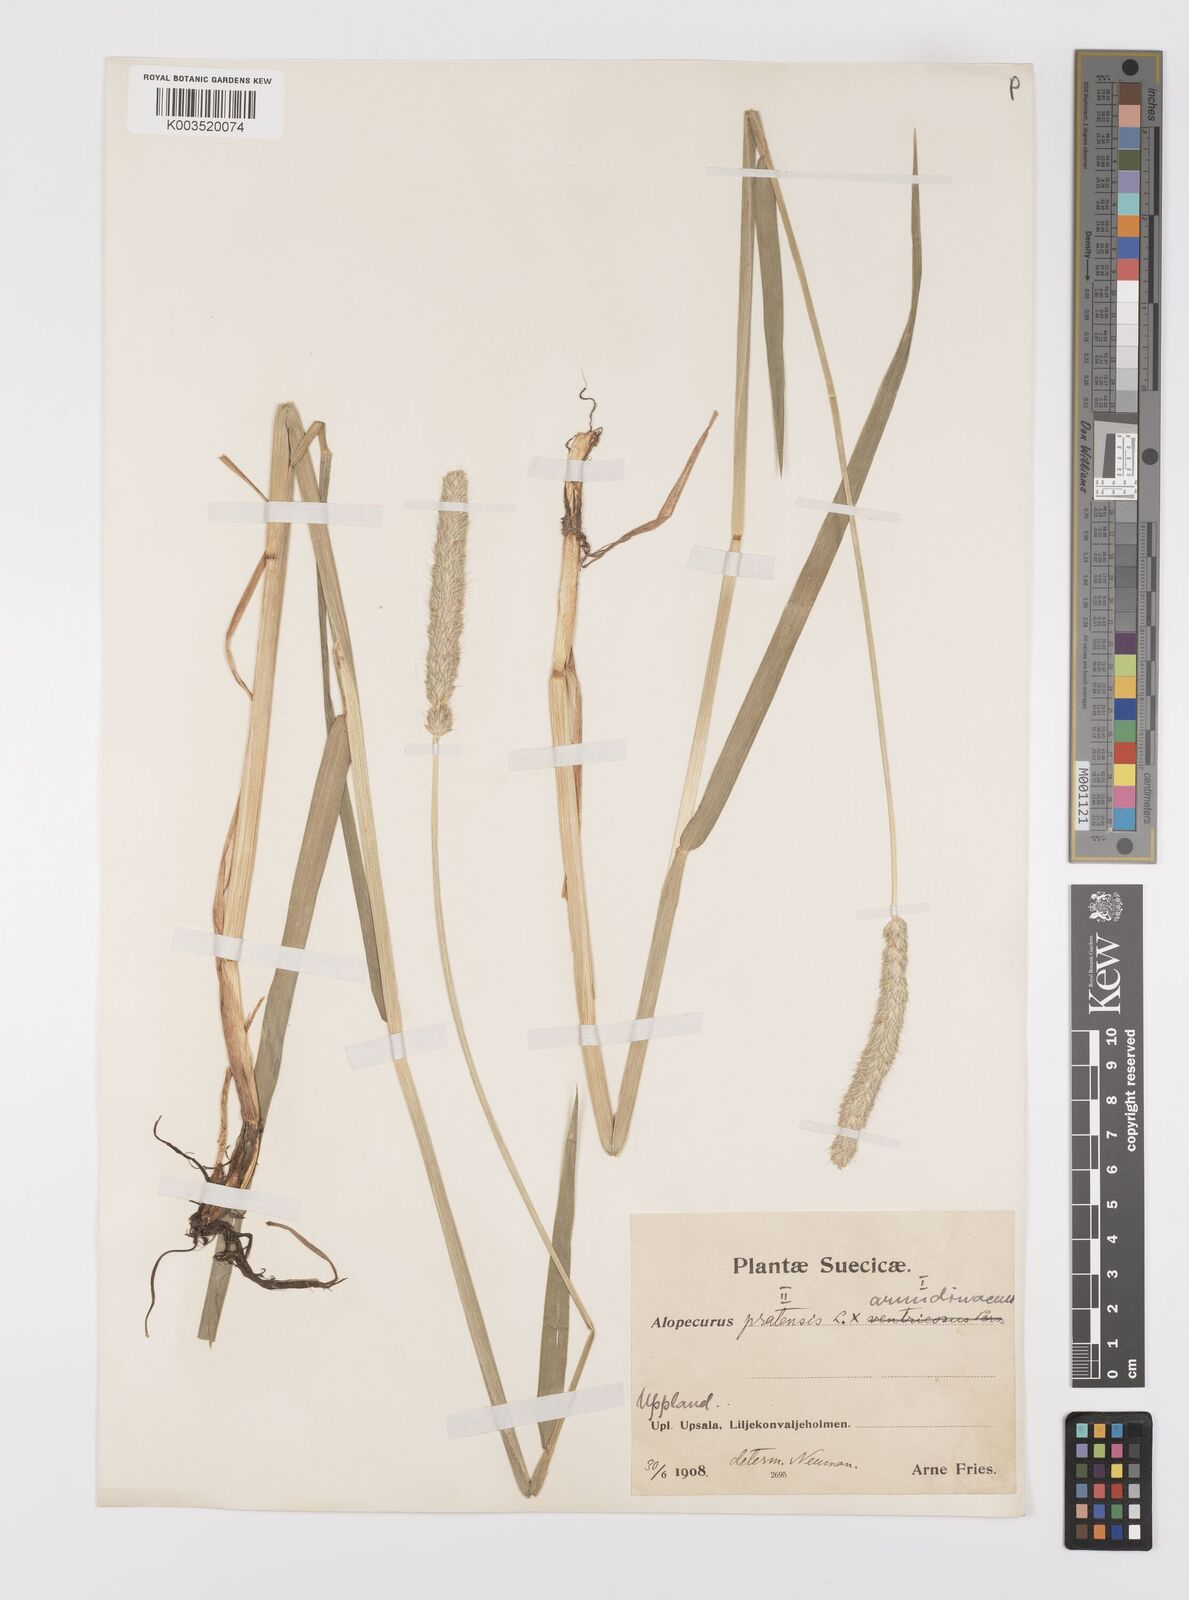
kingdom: Plantae
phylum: Tracheophyta
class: Liliopsida
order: Poales
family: Poaceae
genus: Alopecurus
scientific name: Alopecurus arundinaceus
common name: Creeping meadow foxtail
